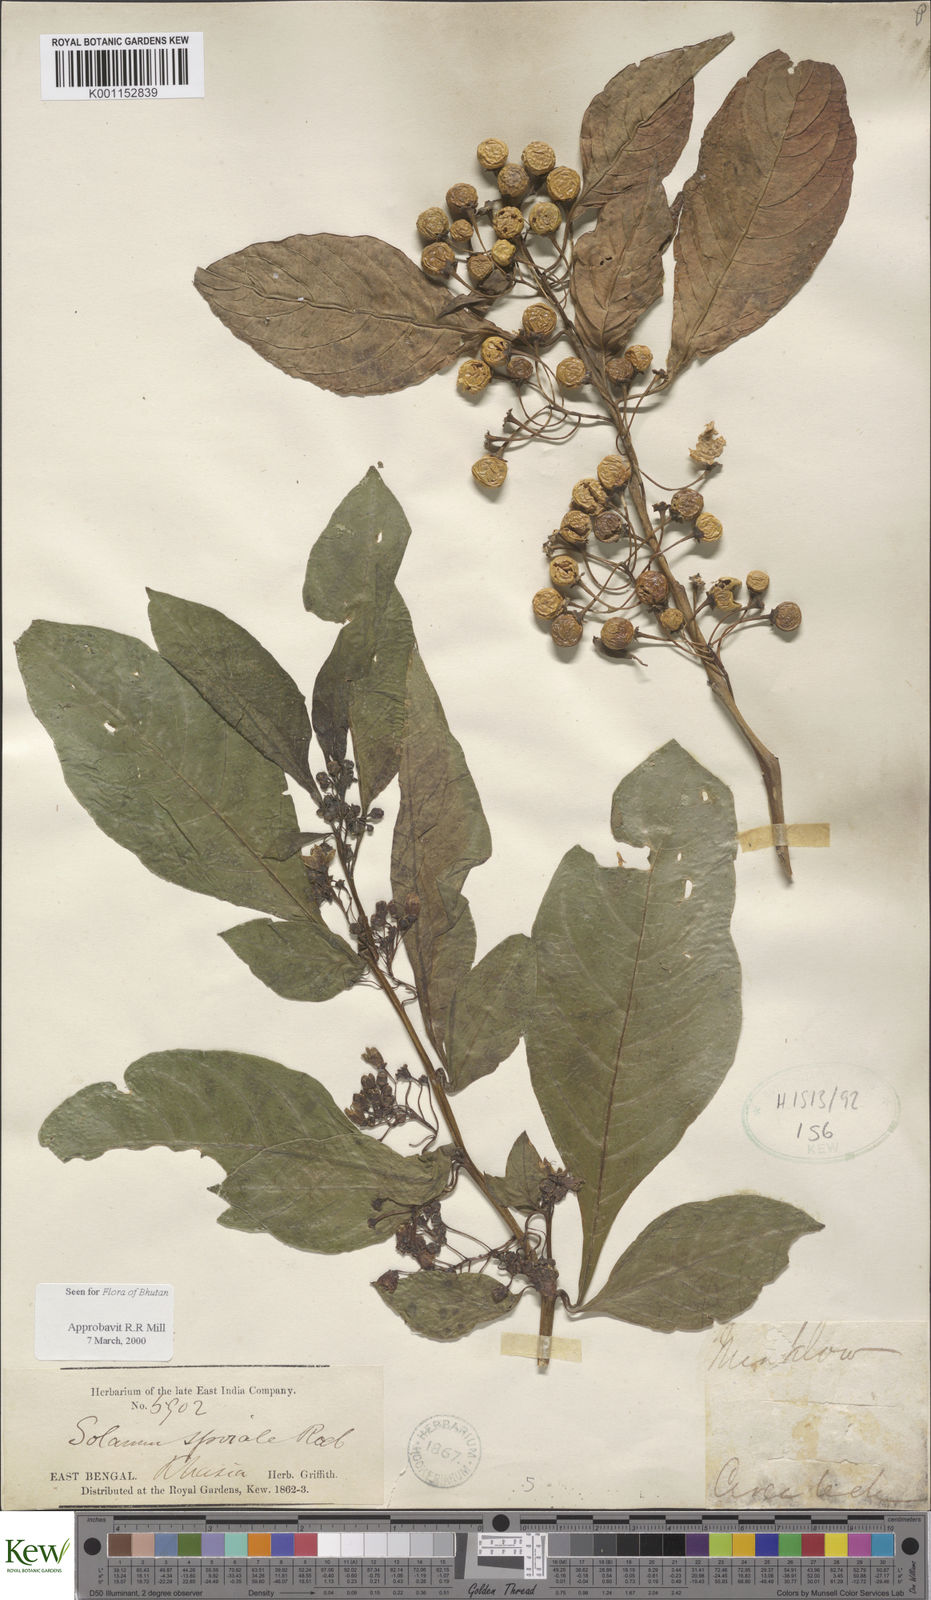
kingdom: Plantae
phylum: Tracheophyta
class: Magnoliopsida
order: Solanales
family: Solanaceae
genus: Solanum
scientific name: Solanum spirale
